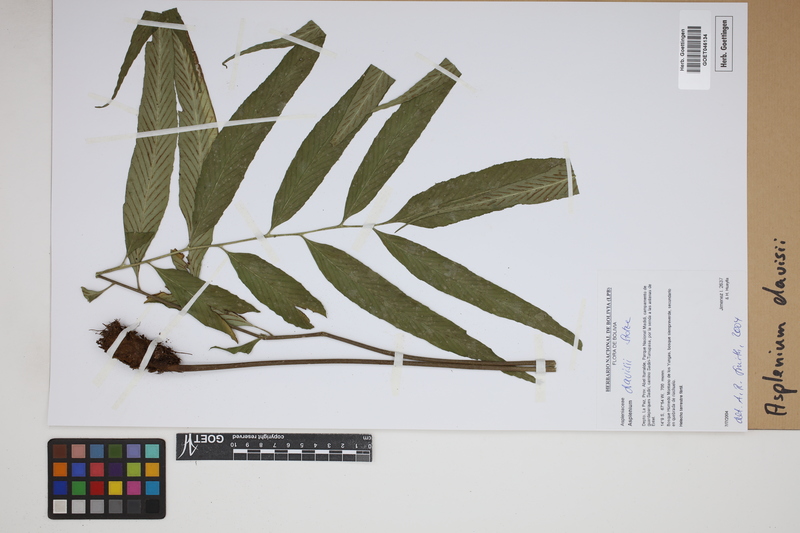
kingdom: Plantae
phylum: Tracheophyta
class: Polypodiopsida
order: Polypodiales
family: Aspleniaceae
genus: Asplenium
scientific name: Asplenium davisii
